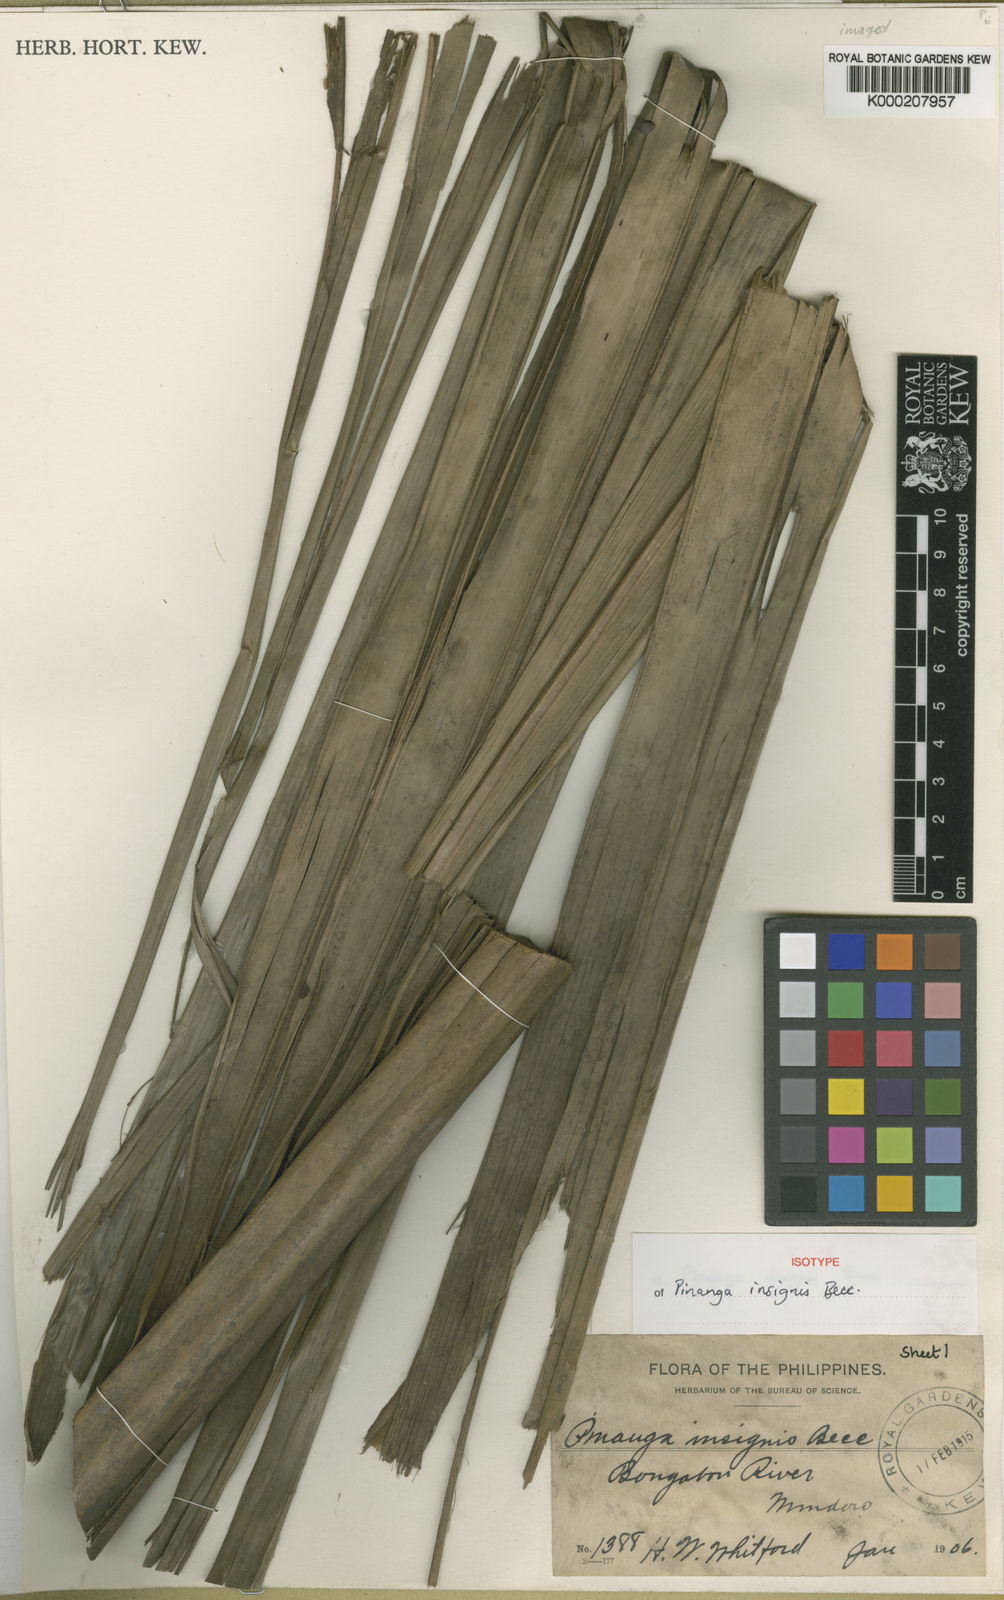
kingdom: Plantae
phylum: Tracheophyta
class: Liliopsida
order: Arecales
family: Arecaceae
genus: Pinanga
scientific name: Pinanga insignis
